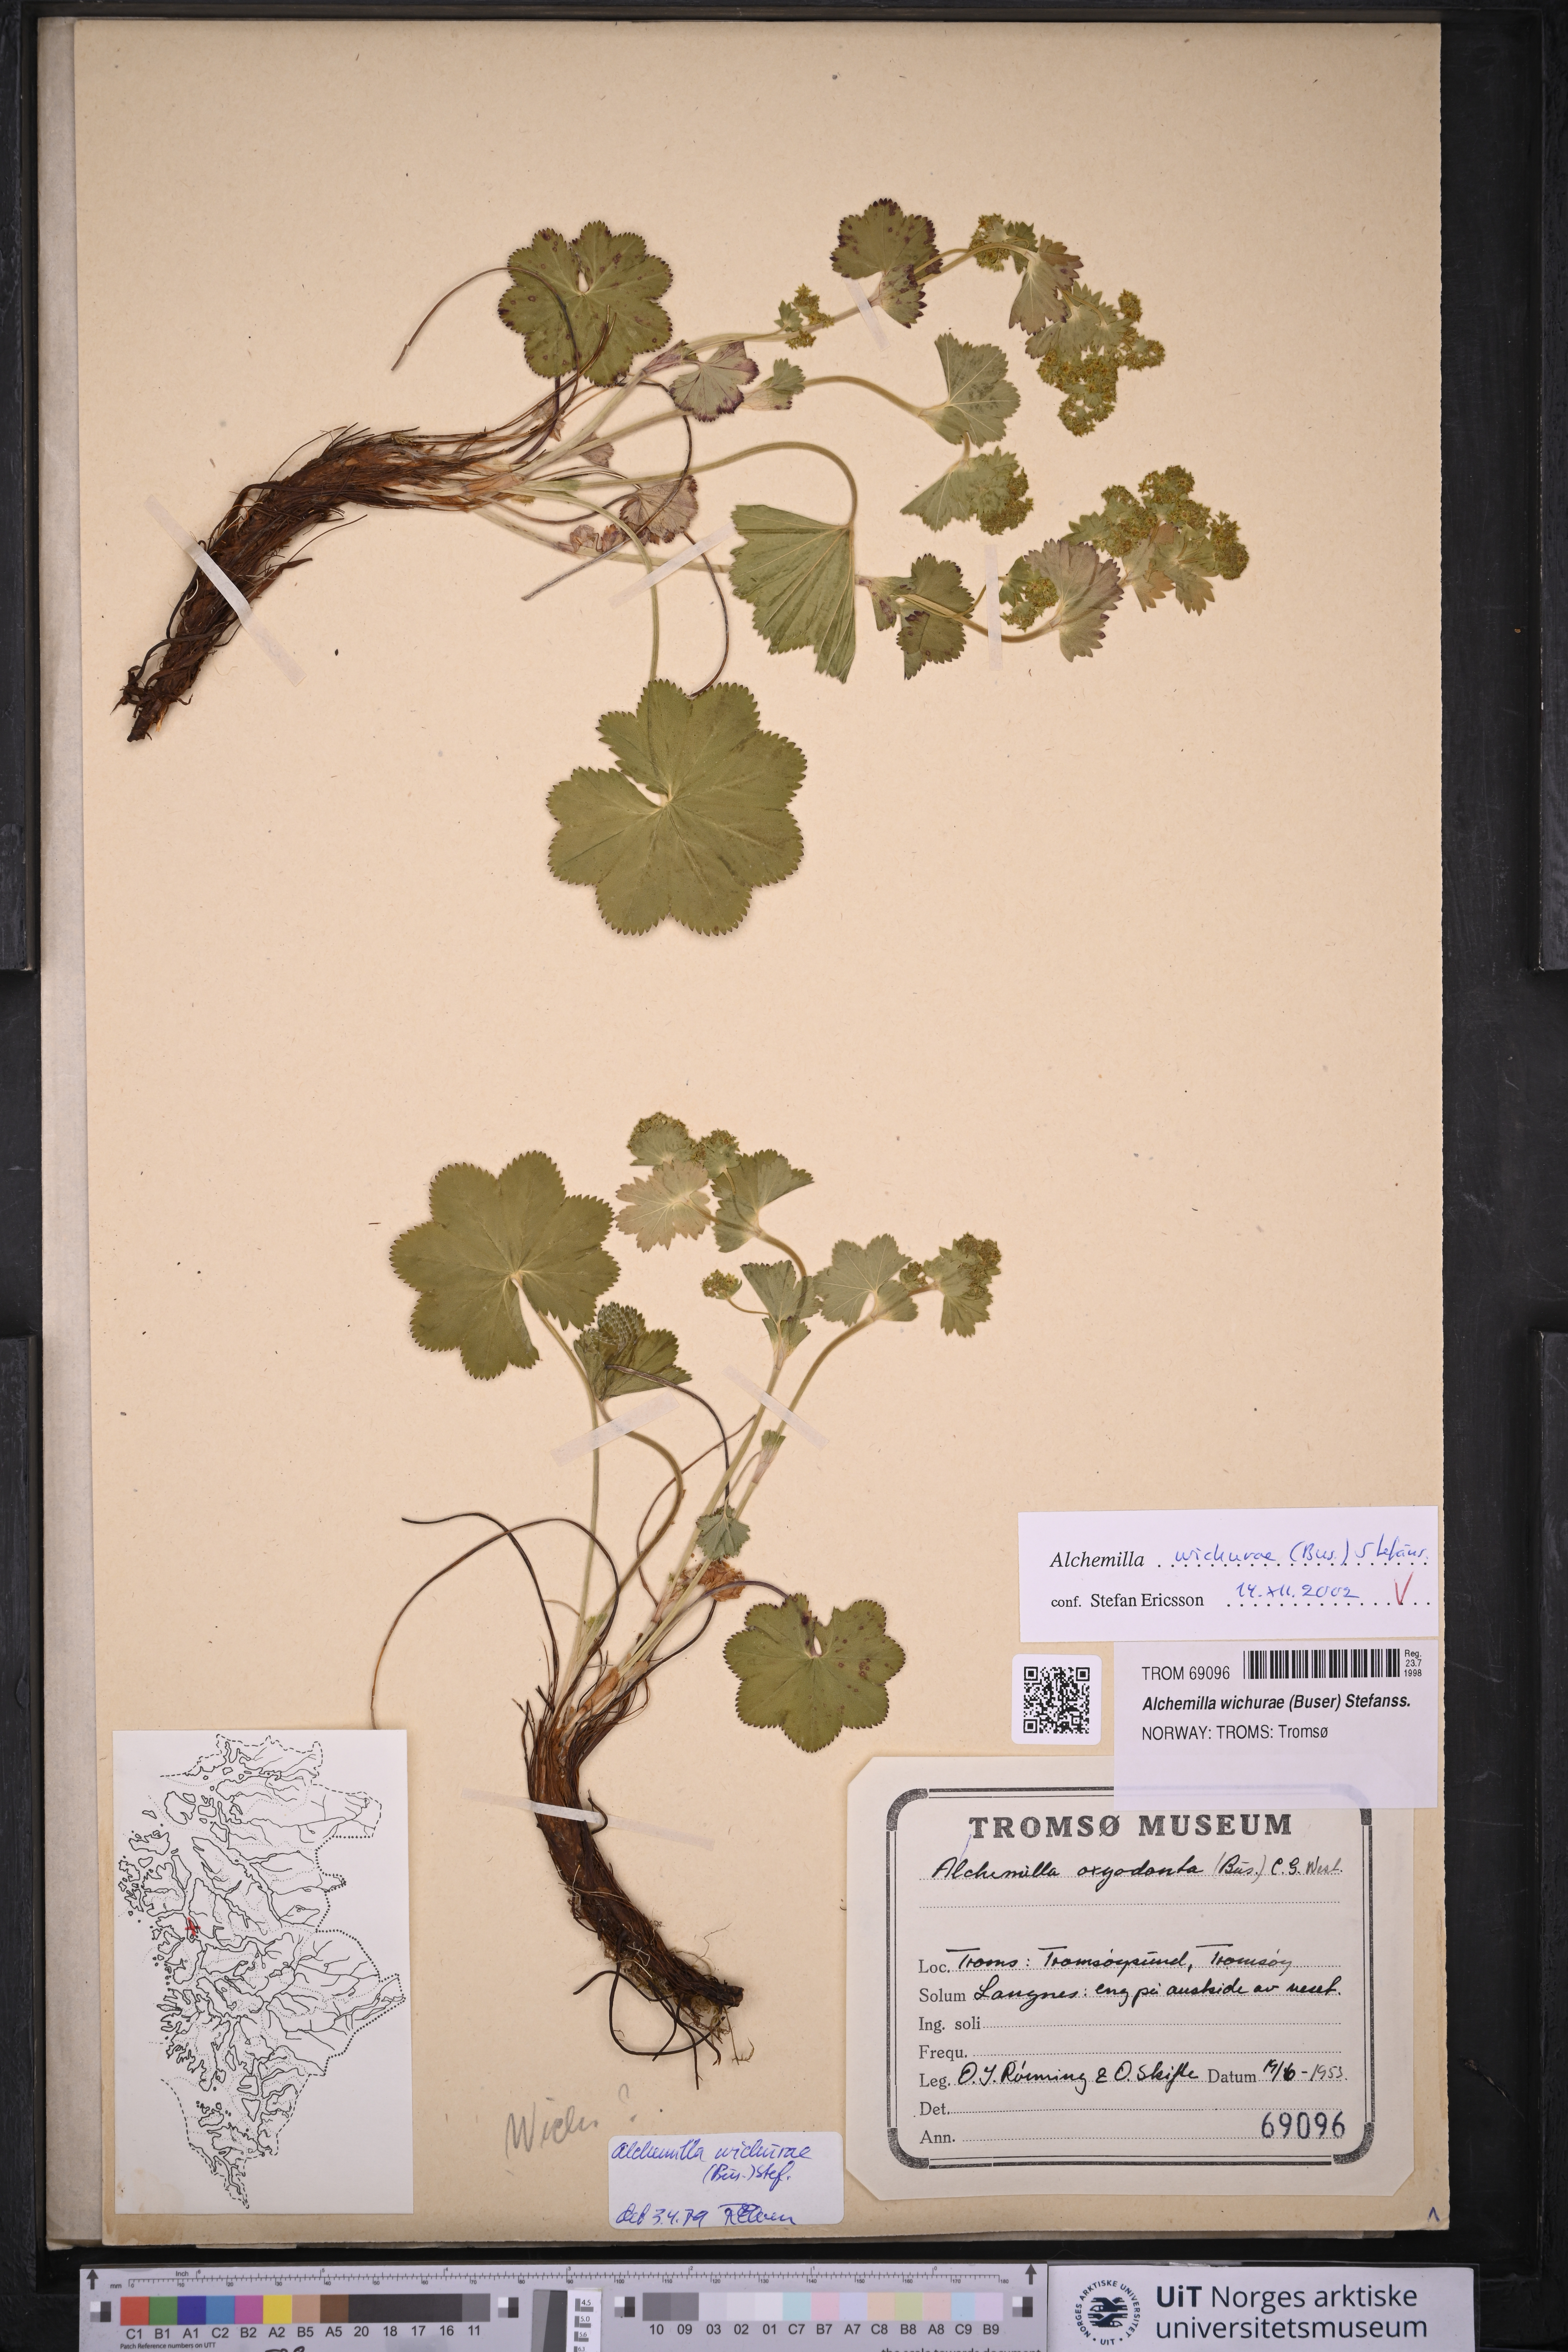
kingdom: Plantae
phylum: Tracheophyta
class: Magnoliopsida
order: Rosales
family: Rosaceae
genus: Alchemilla
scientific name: Alchemilla wichurae
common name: Rock lady's mantle
